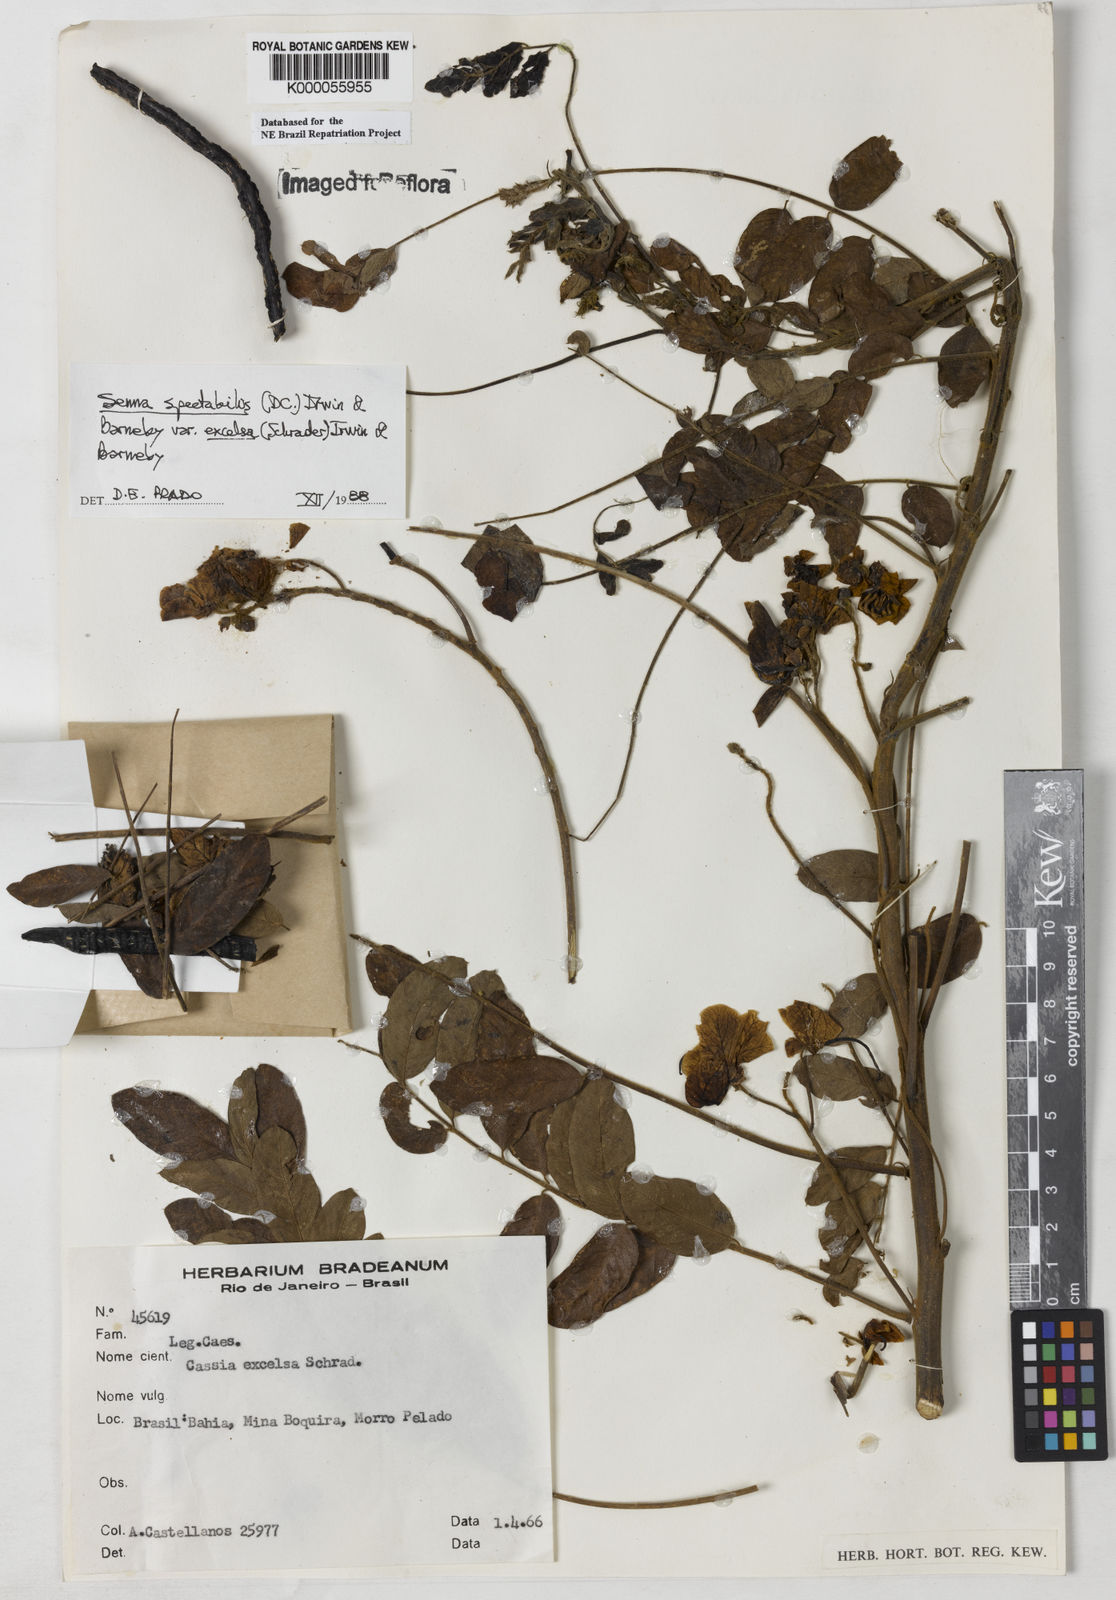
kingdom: Plantae
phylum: Tracheophyta
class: Magnoliopsida
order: Fabales
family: Fabaceae
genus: Senna
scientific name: Senna spectabilis
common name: Casia amarilla
